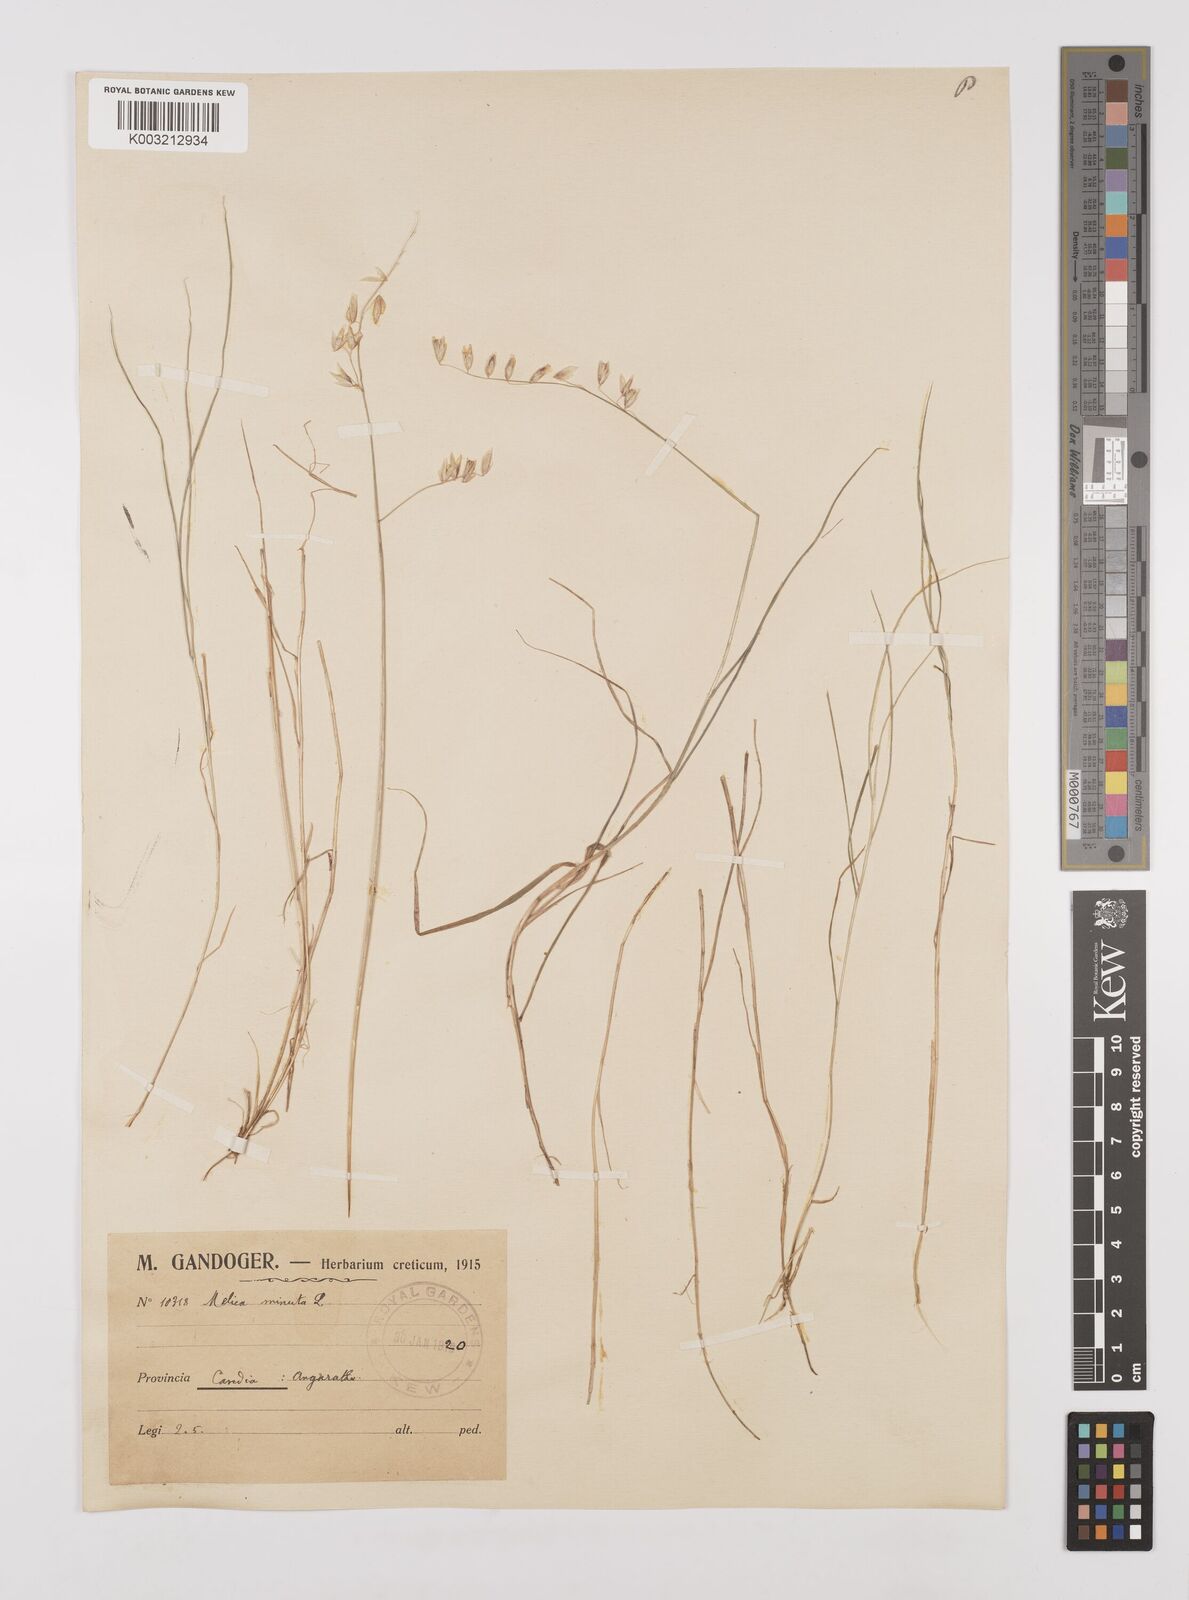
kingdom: Plantae
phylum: Tracheophyta
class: Liliopsida
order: Poales
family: Poaceae
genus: Melica
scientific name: Melica minuta
